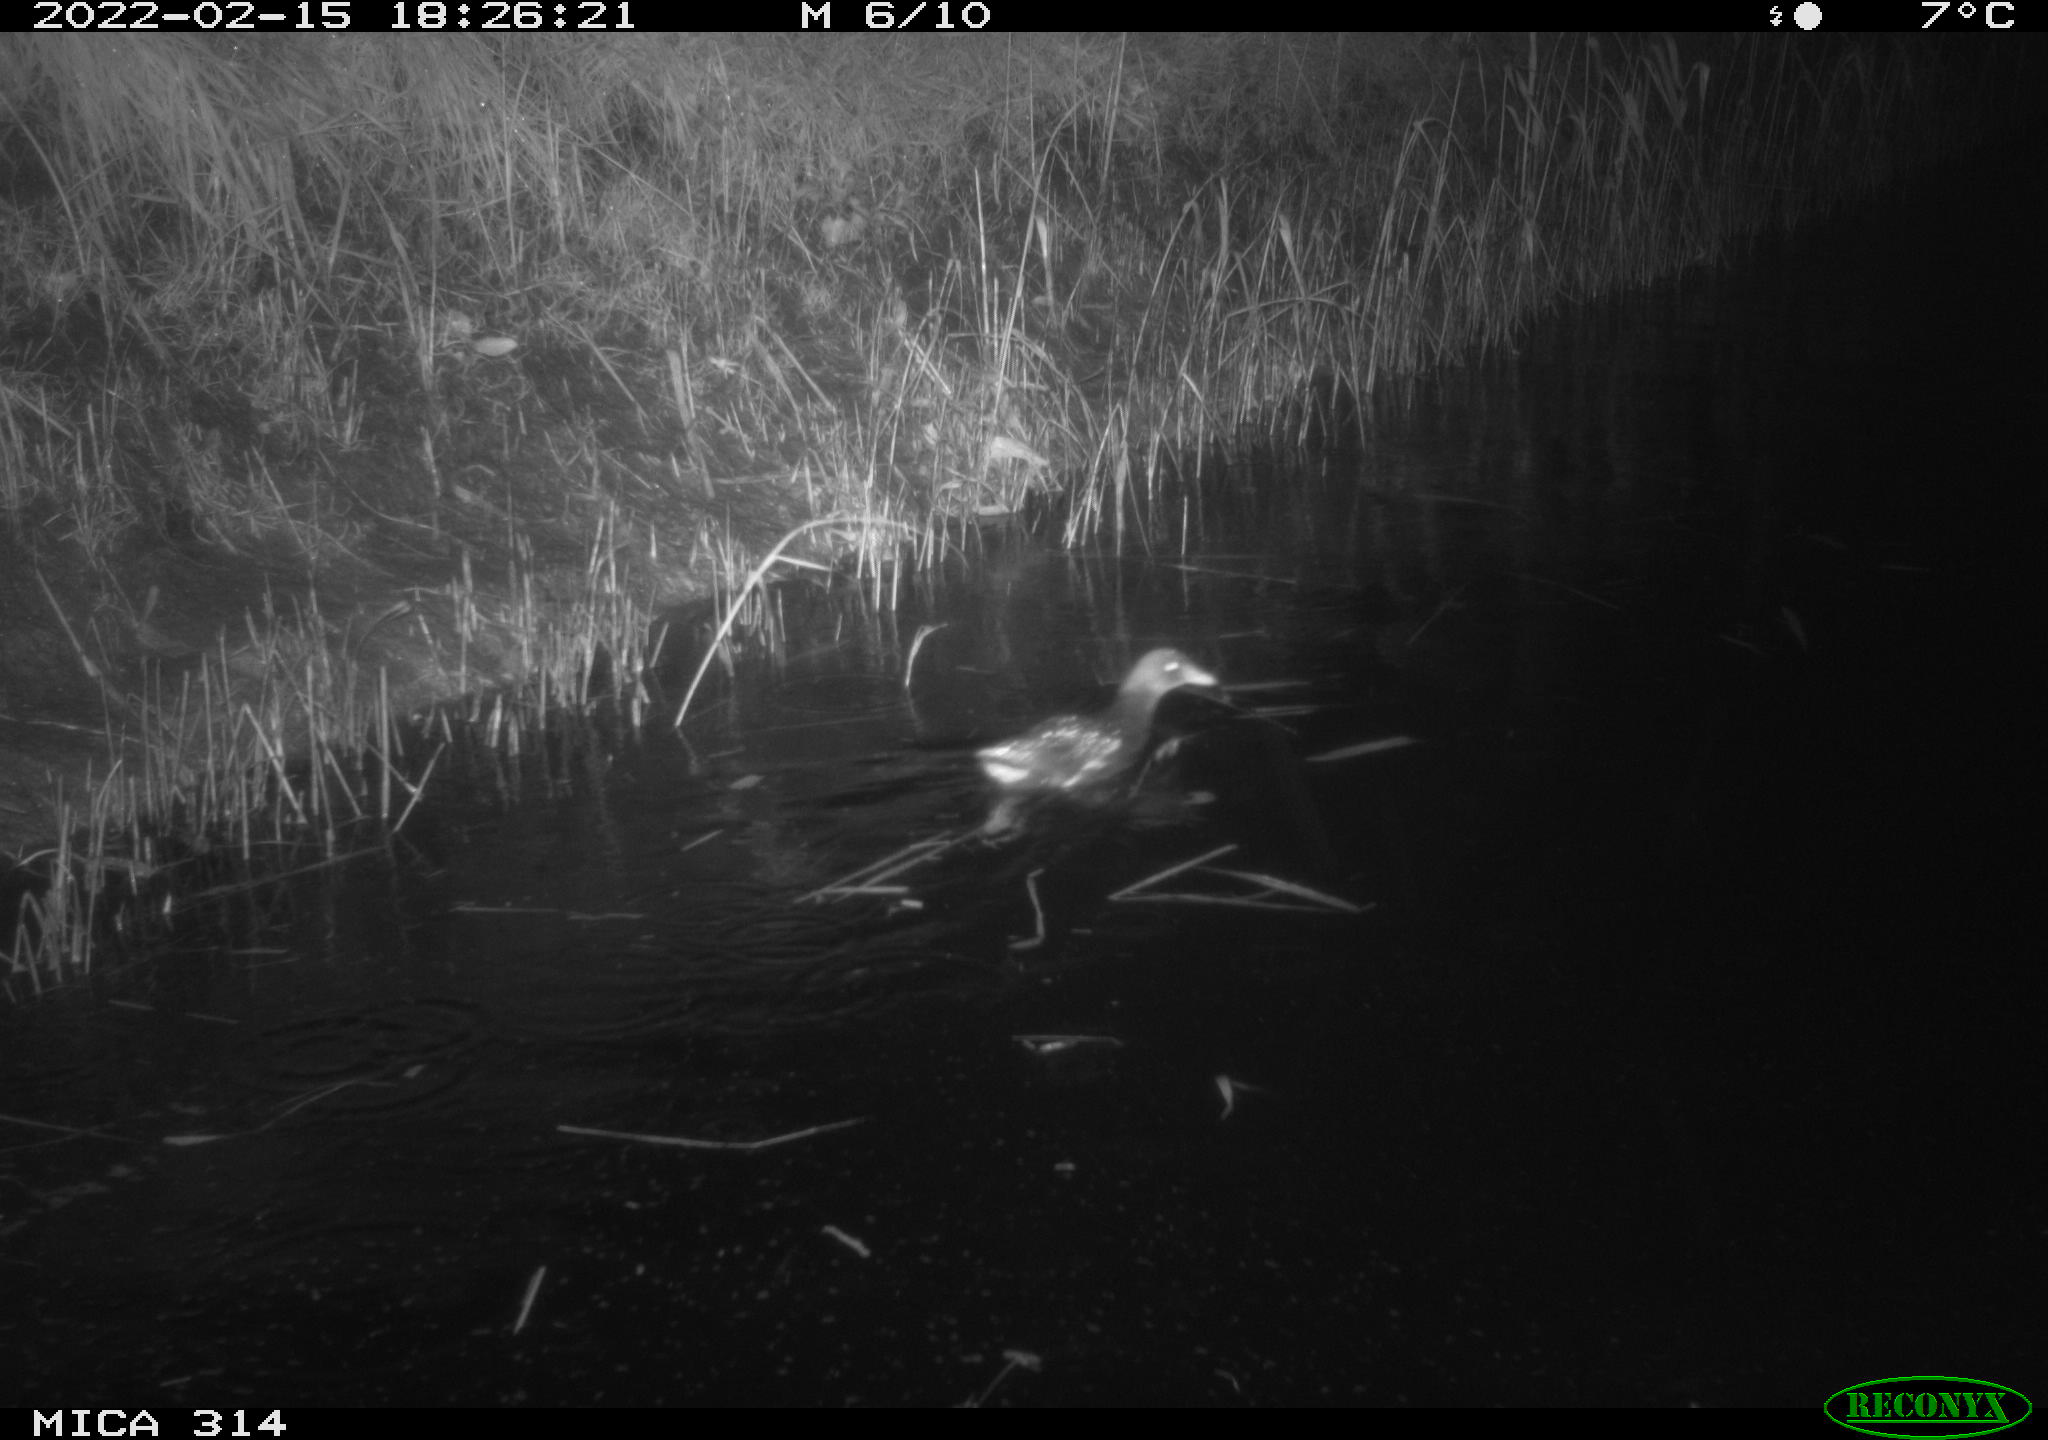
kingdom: Animalia
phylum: Chordata
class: Aves
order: Gruiformes
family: Rallidae
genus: Gallinula
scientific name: Gallinula chloropus
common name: Common moorhen
